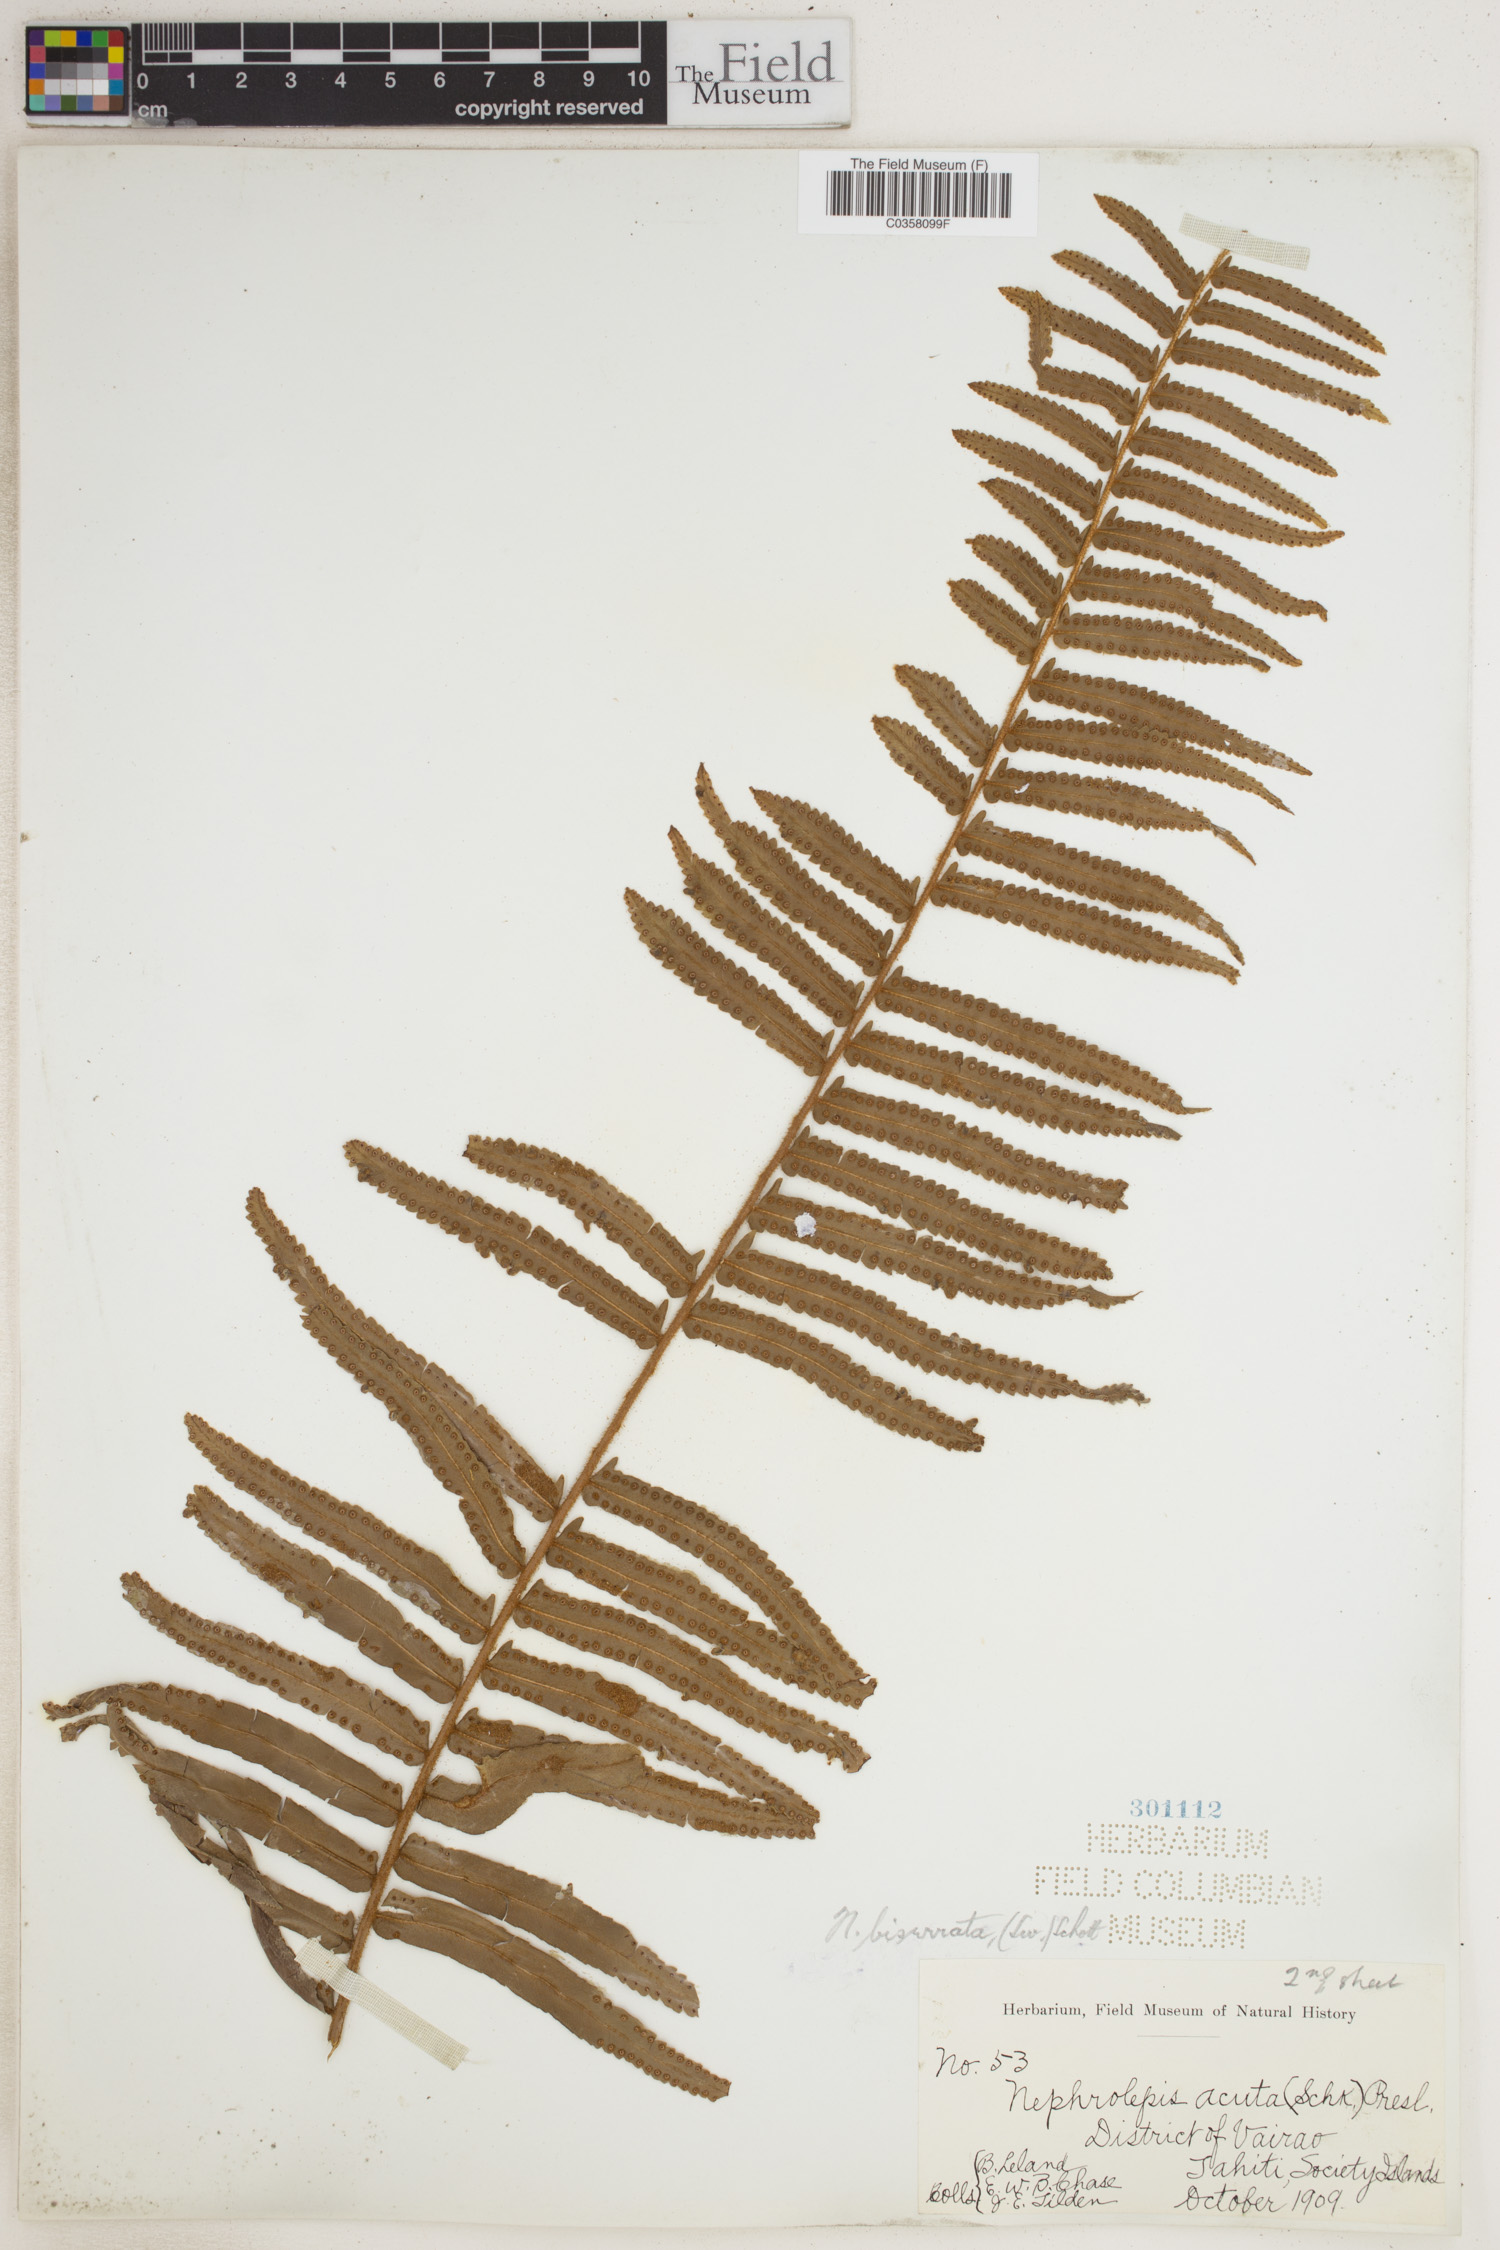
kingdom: Plantae
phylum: Tracheophyta
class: Polypodiopsida
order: Polypodiales
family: Nephrolepidaceae
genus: Nephrolepis
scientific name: Nephrolepis biserrata
